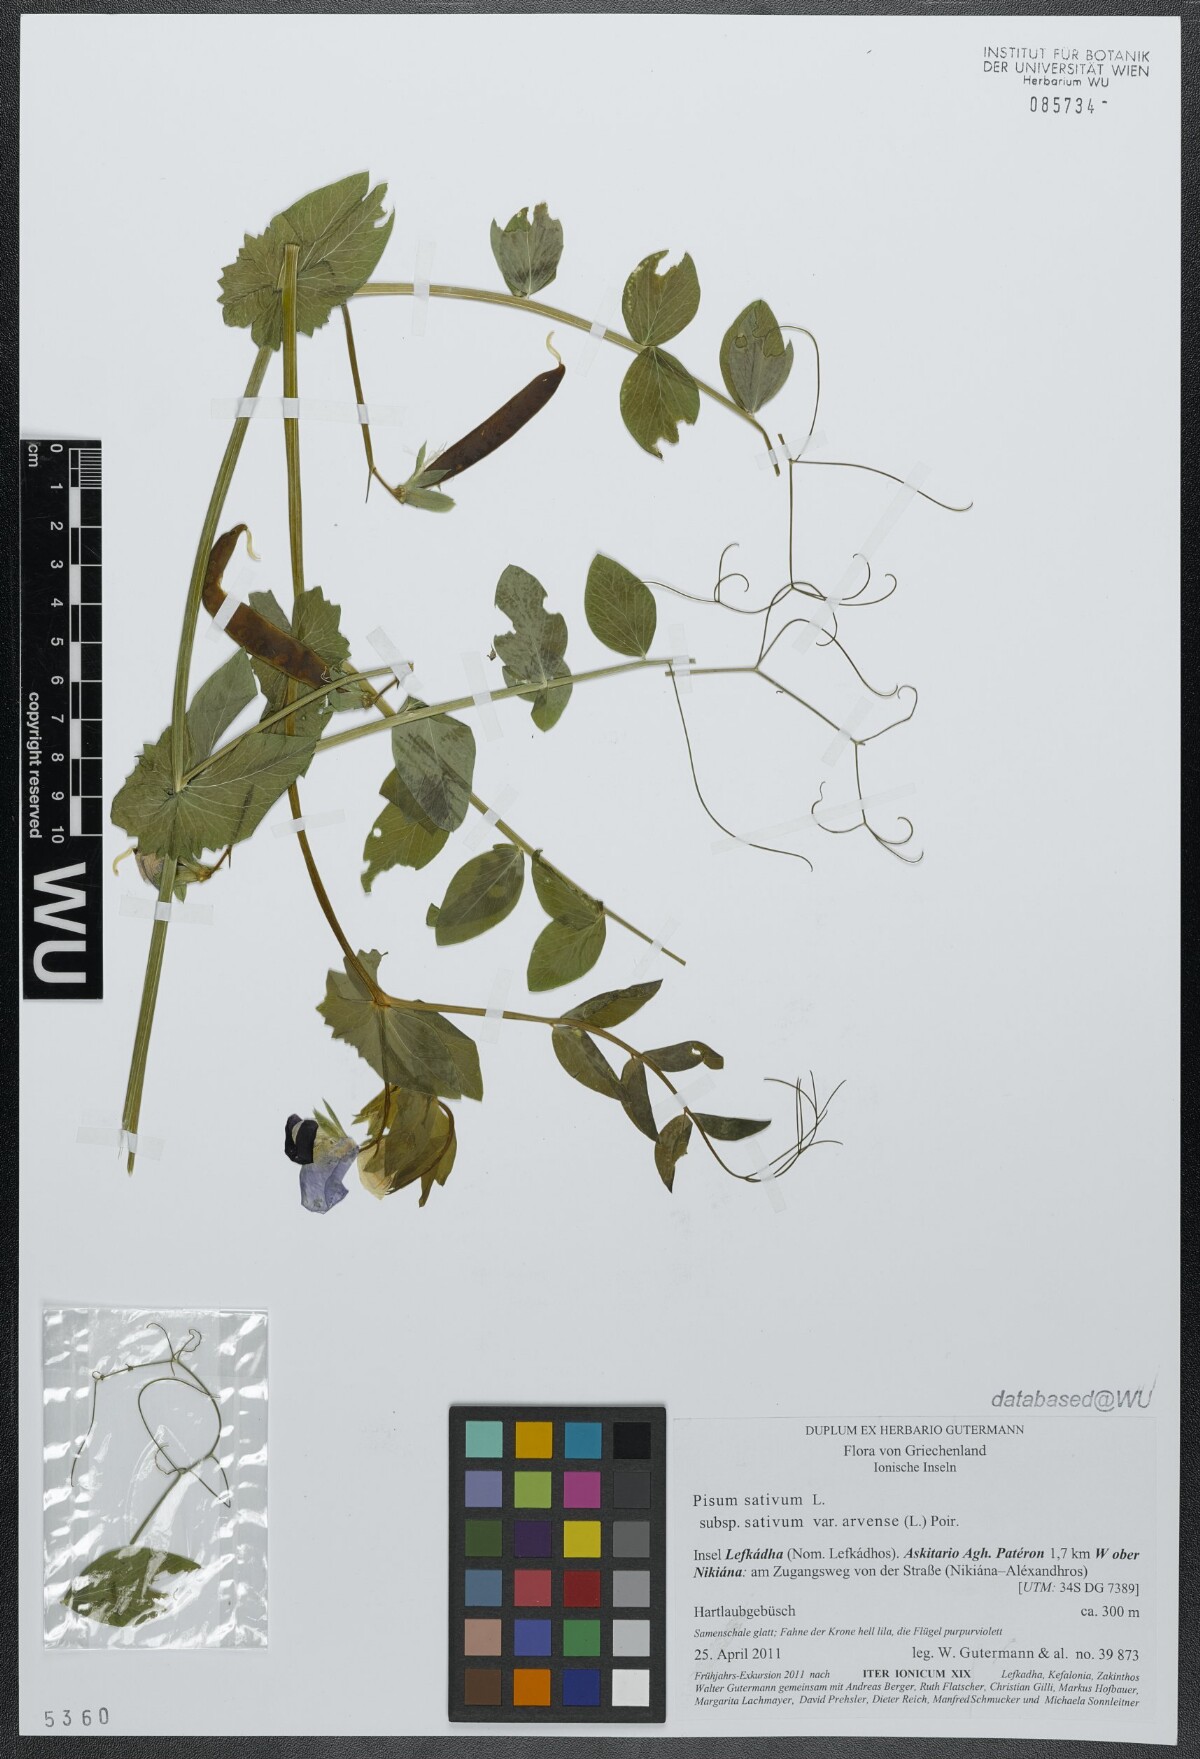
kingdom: Plantae
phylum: Tracheophyta
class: Magnoliopsida
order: Fabales
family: Fabaceae
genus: Lathyrus
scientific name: Lathyrus oleraceus
